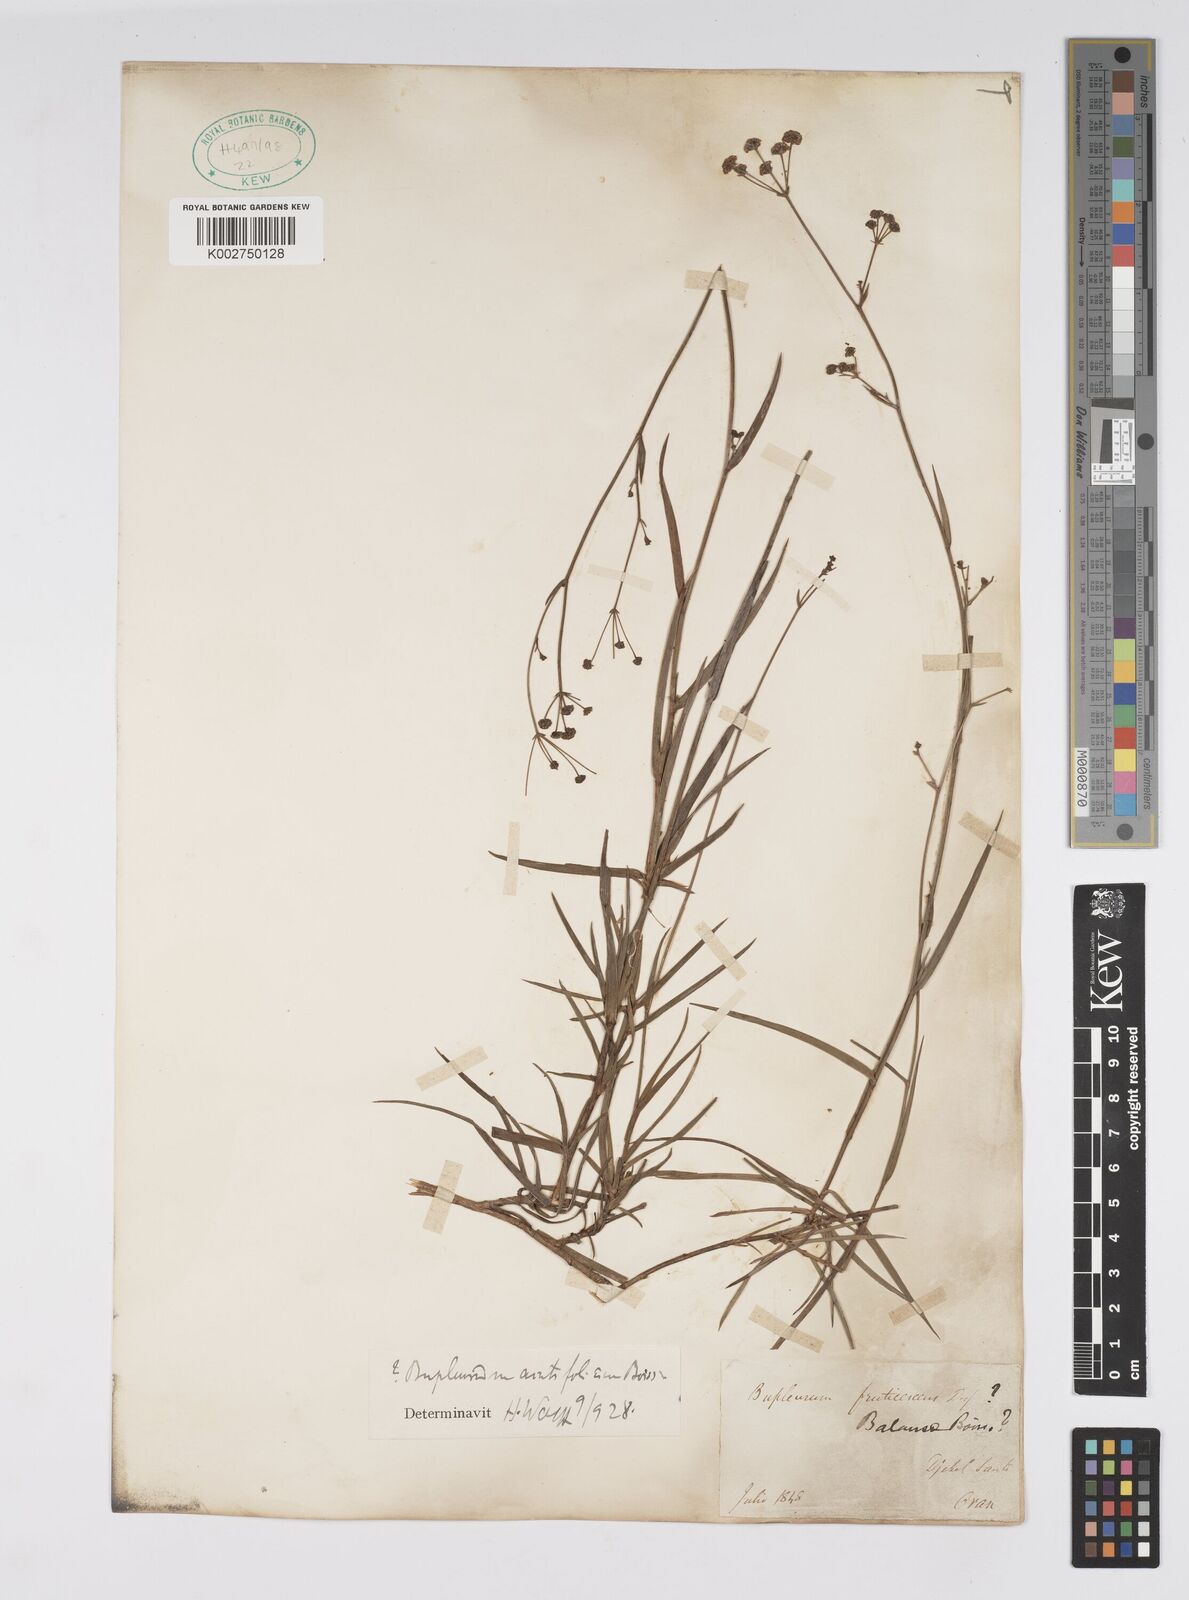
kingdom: Plantae
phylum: Tracheophyta
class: Magnoliopsida
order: Apiales
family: Apiaceae
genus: Bupleurum
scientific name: Bupleurum balansae
